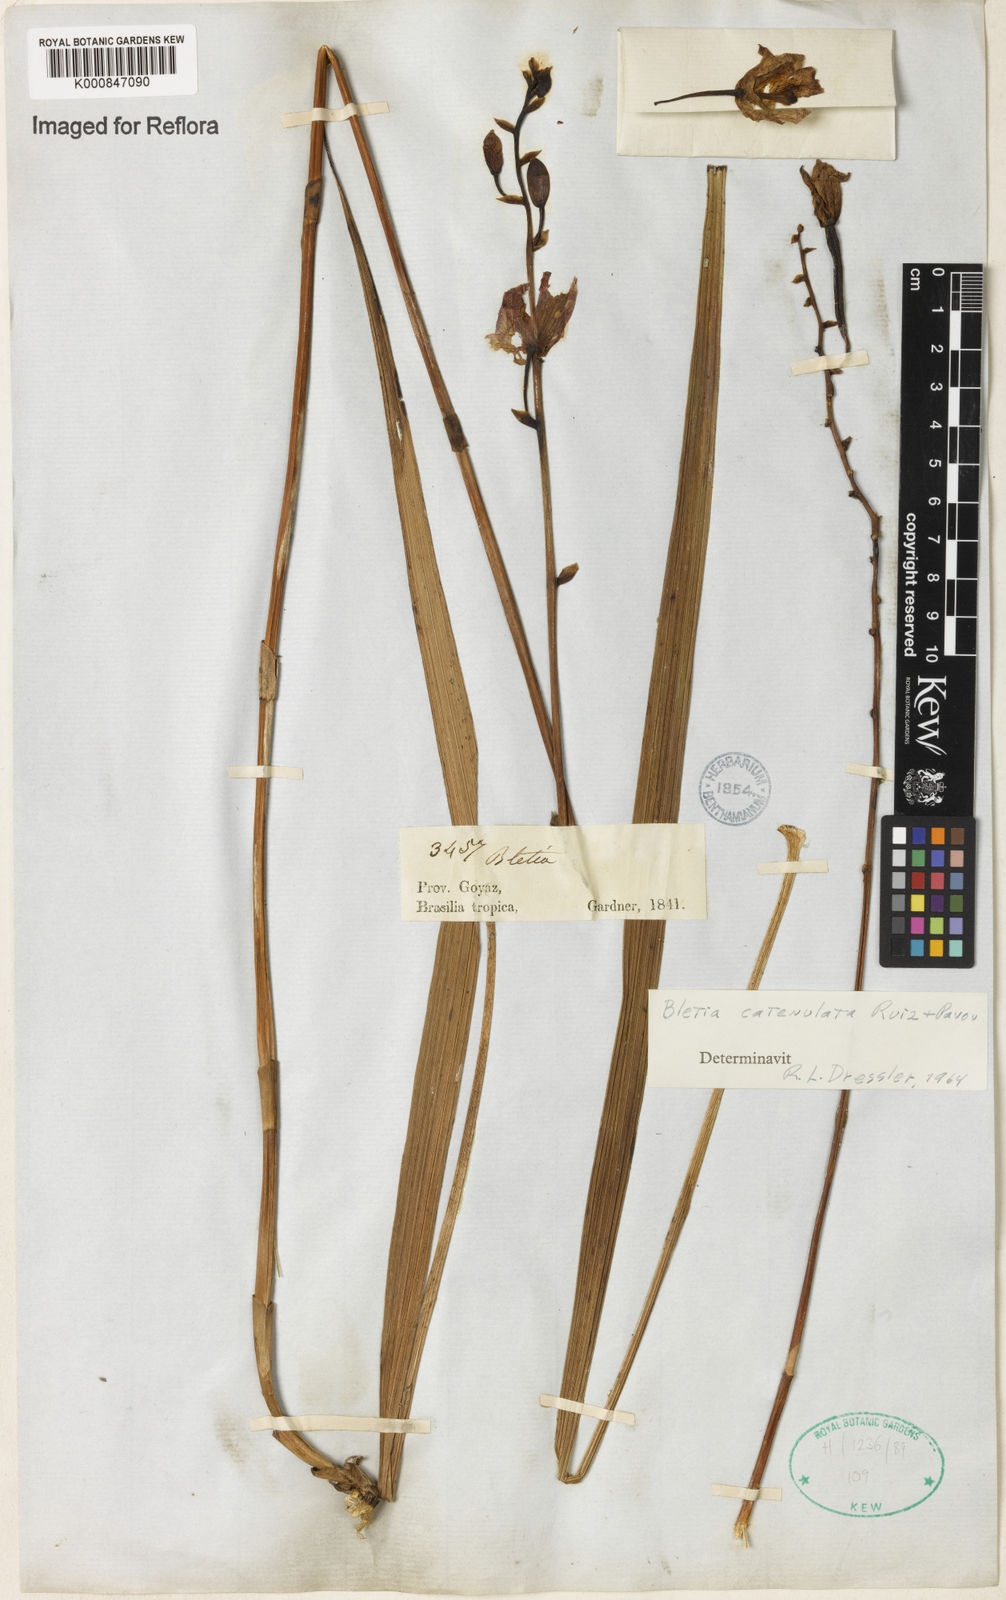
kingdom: Plantae
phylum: Tracheophyta
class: Liliopsida
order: Asparagales
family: Orchidaceae
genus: Bletia
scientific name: Bletia
